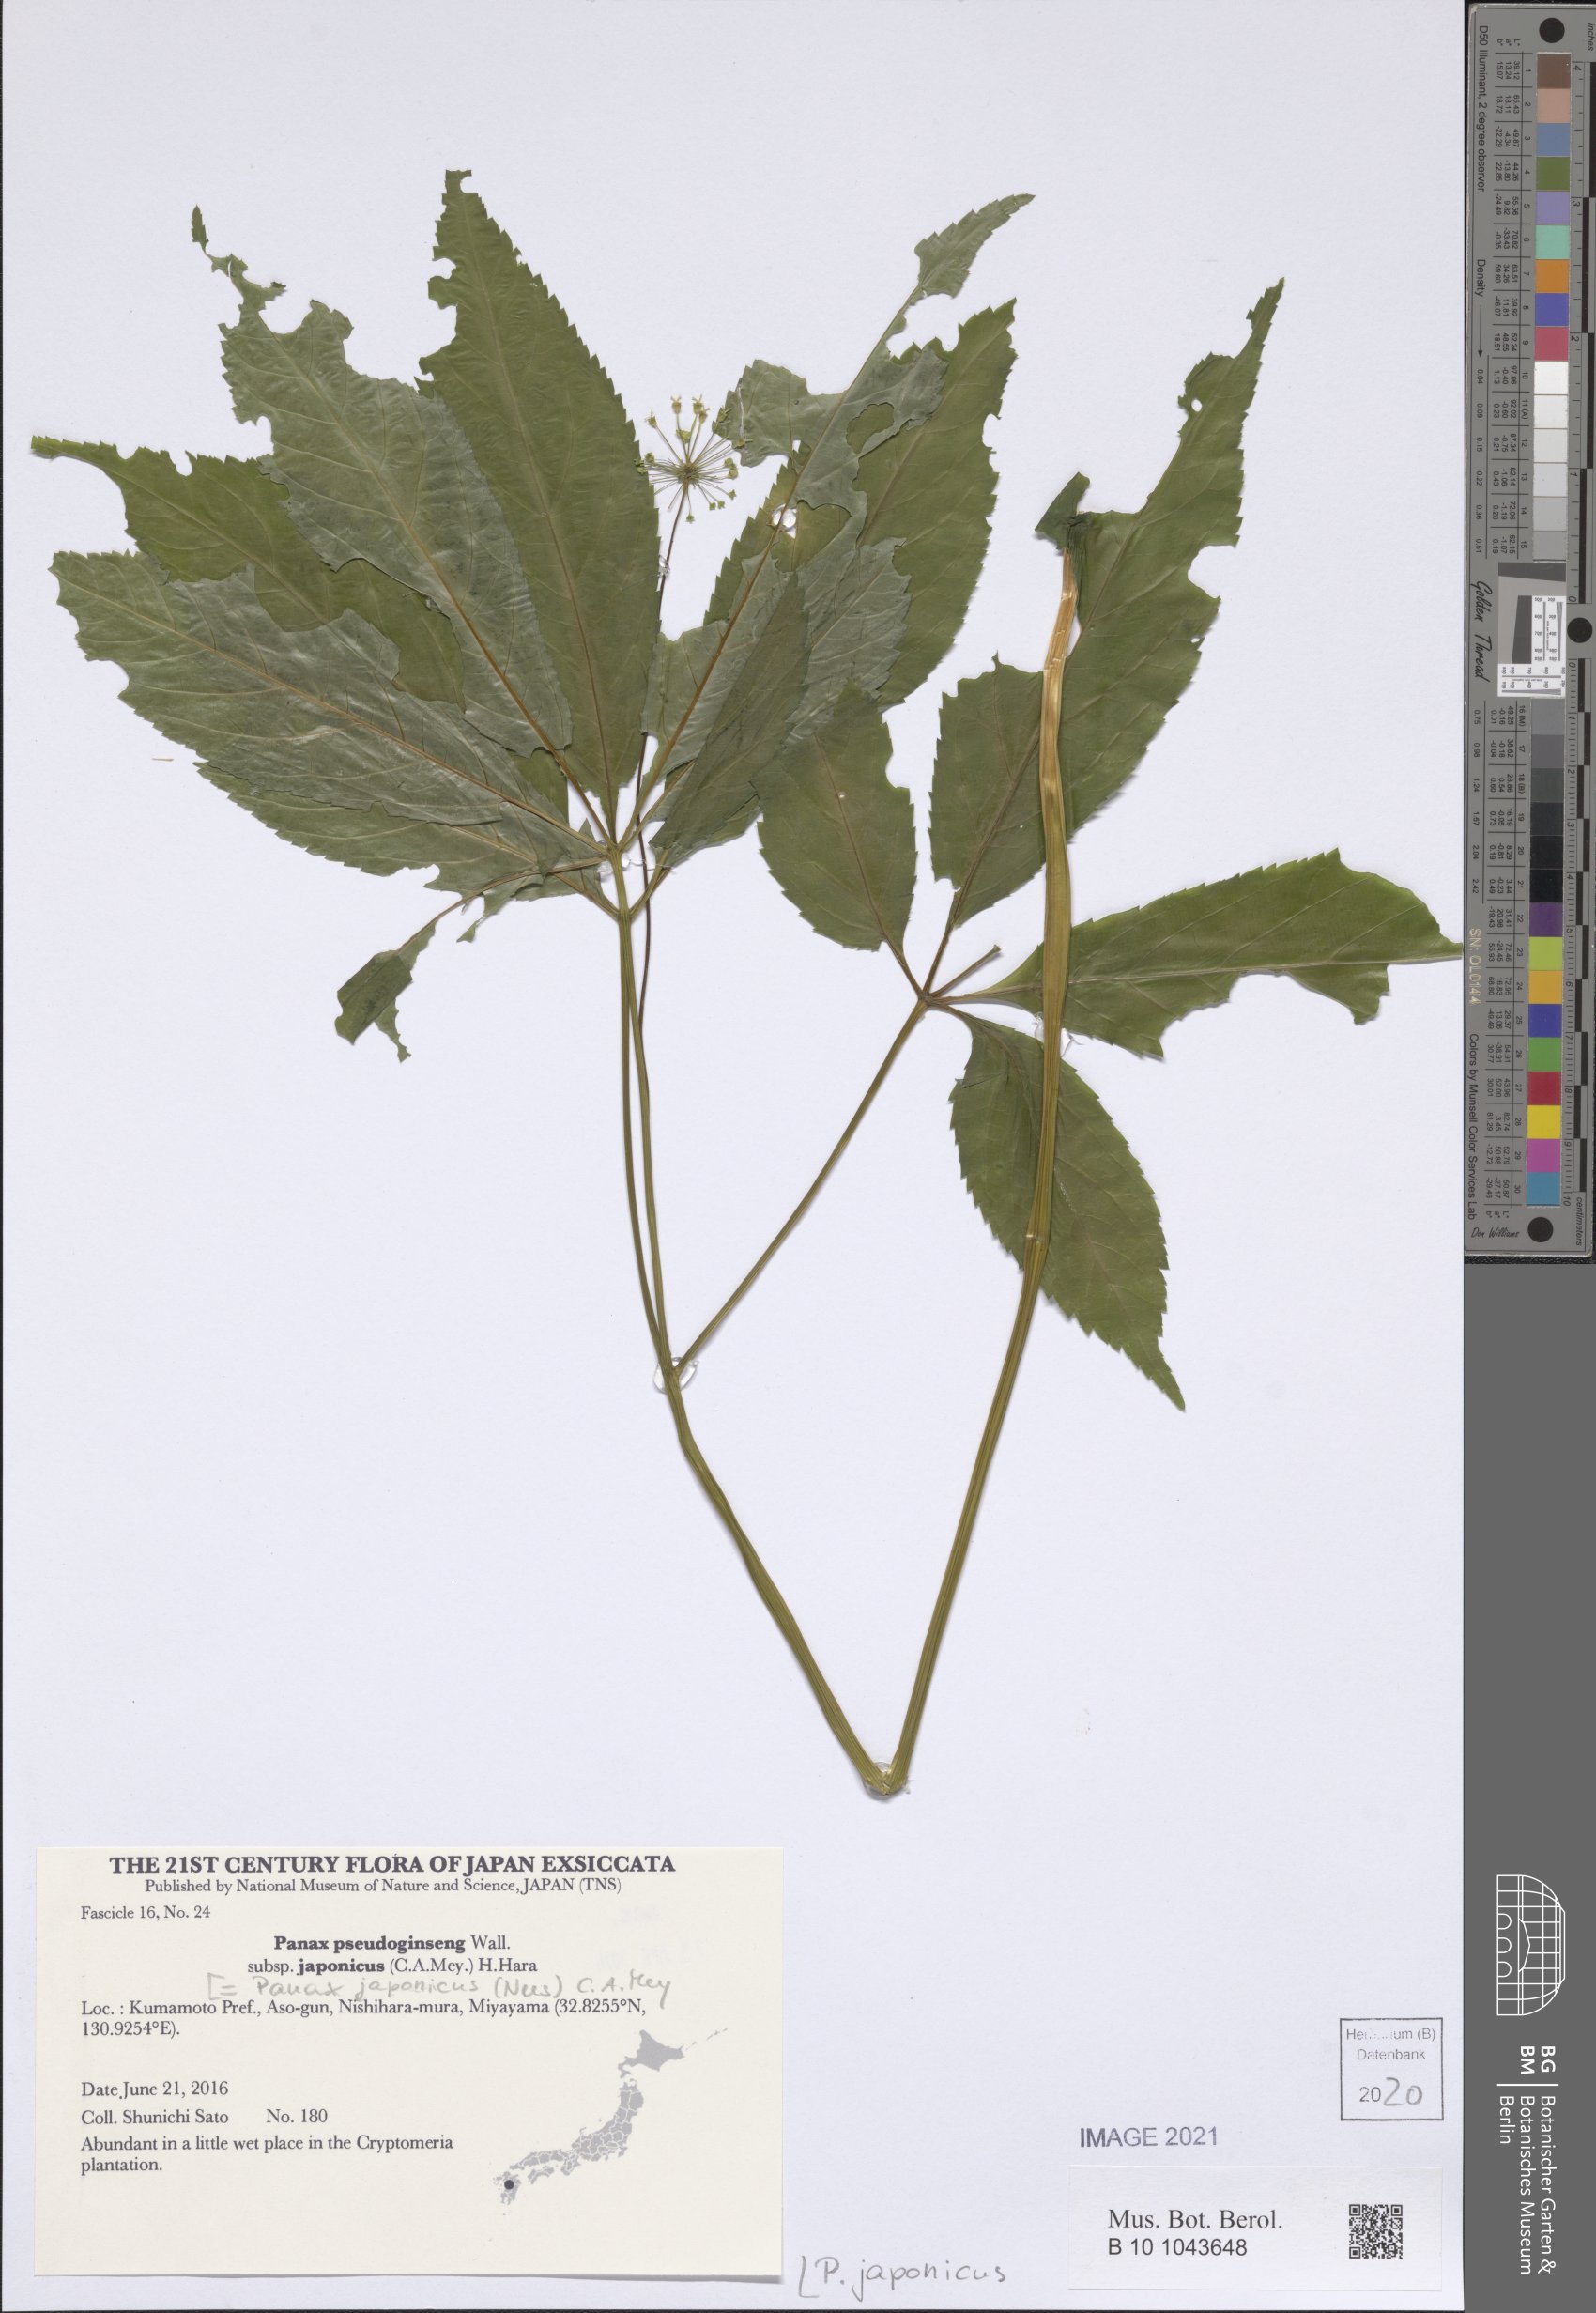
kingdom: Plantae
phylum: Tracheophyta
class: Magnoliopsida
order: Apiales
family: Araliaceae
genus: Panax
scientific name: Panax japonicus
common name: Japanese ginseng
